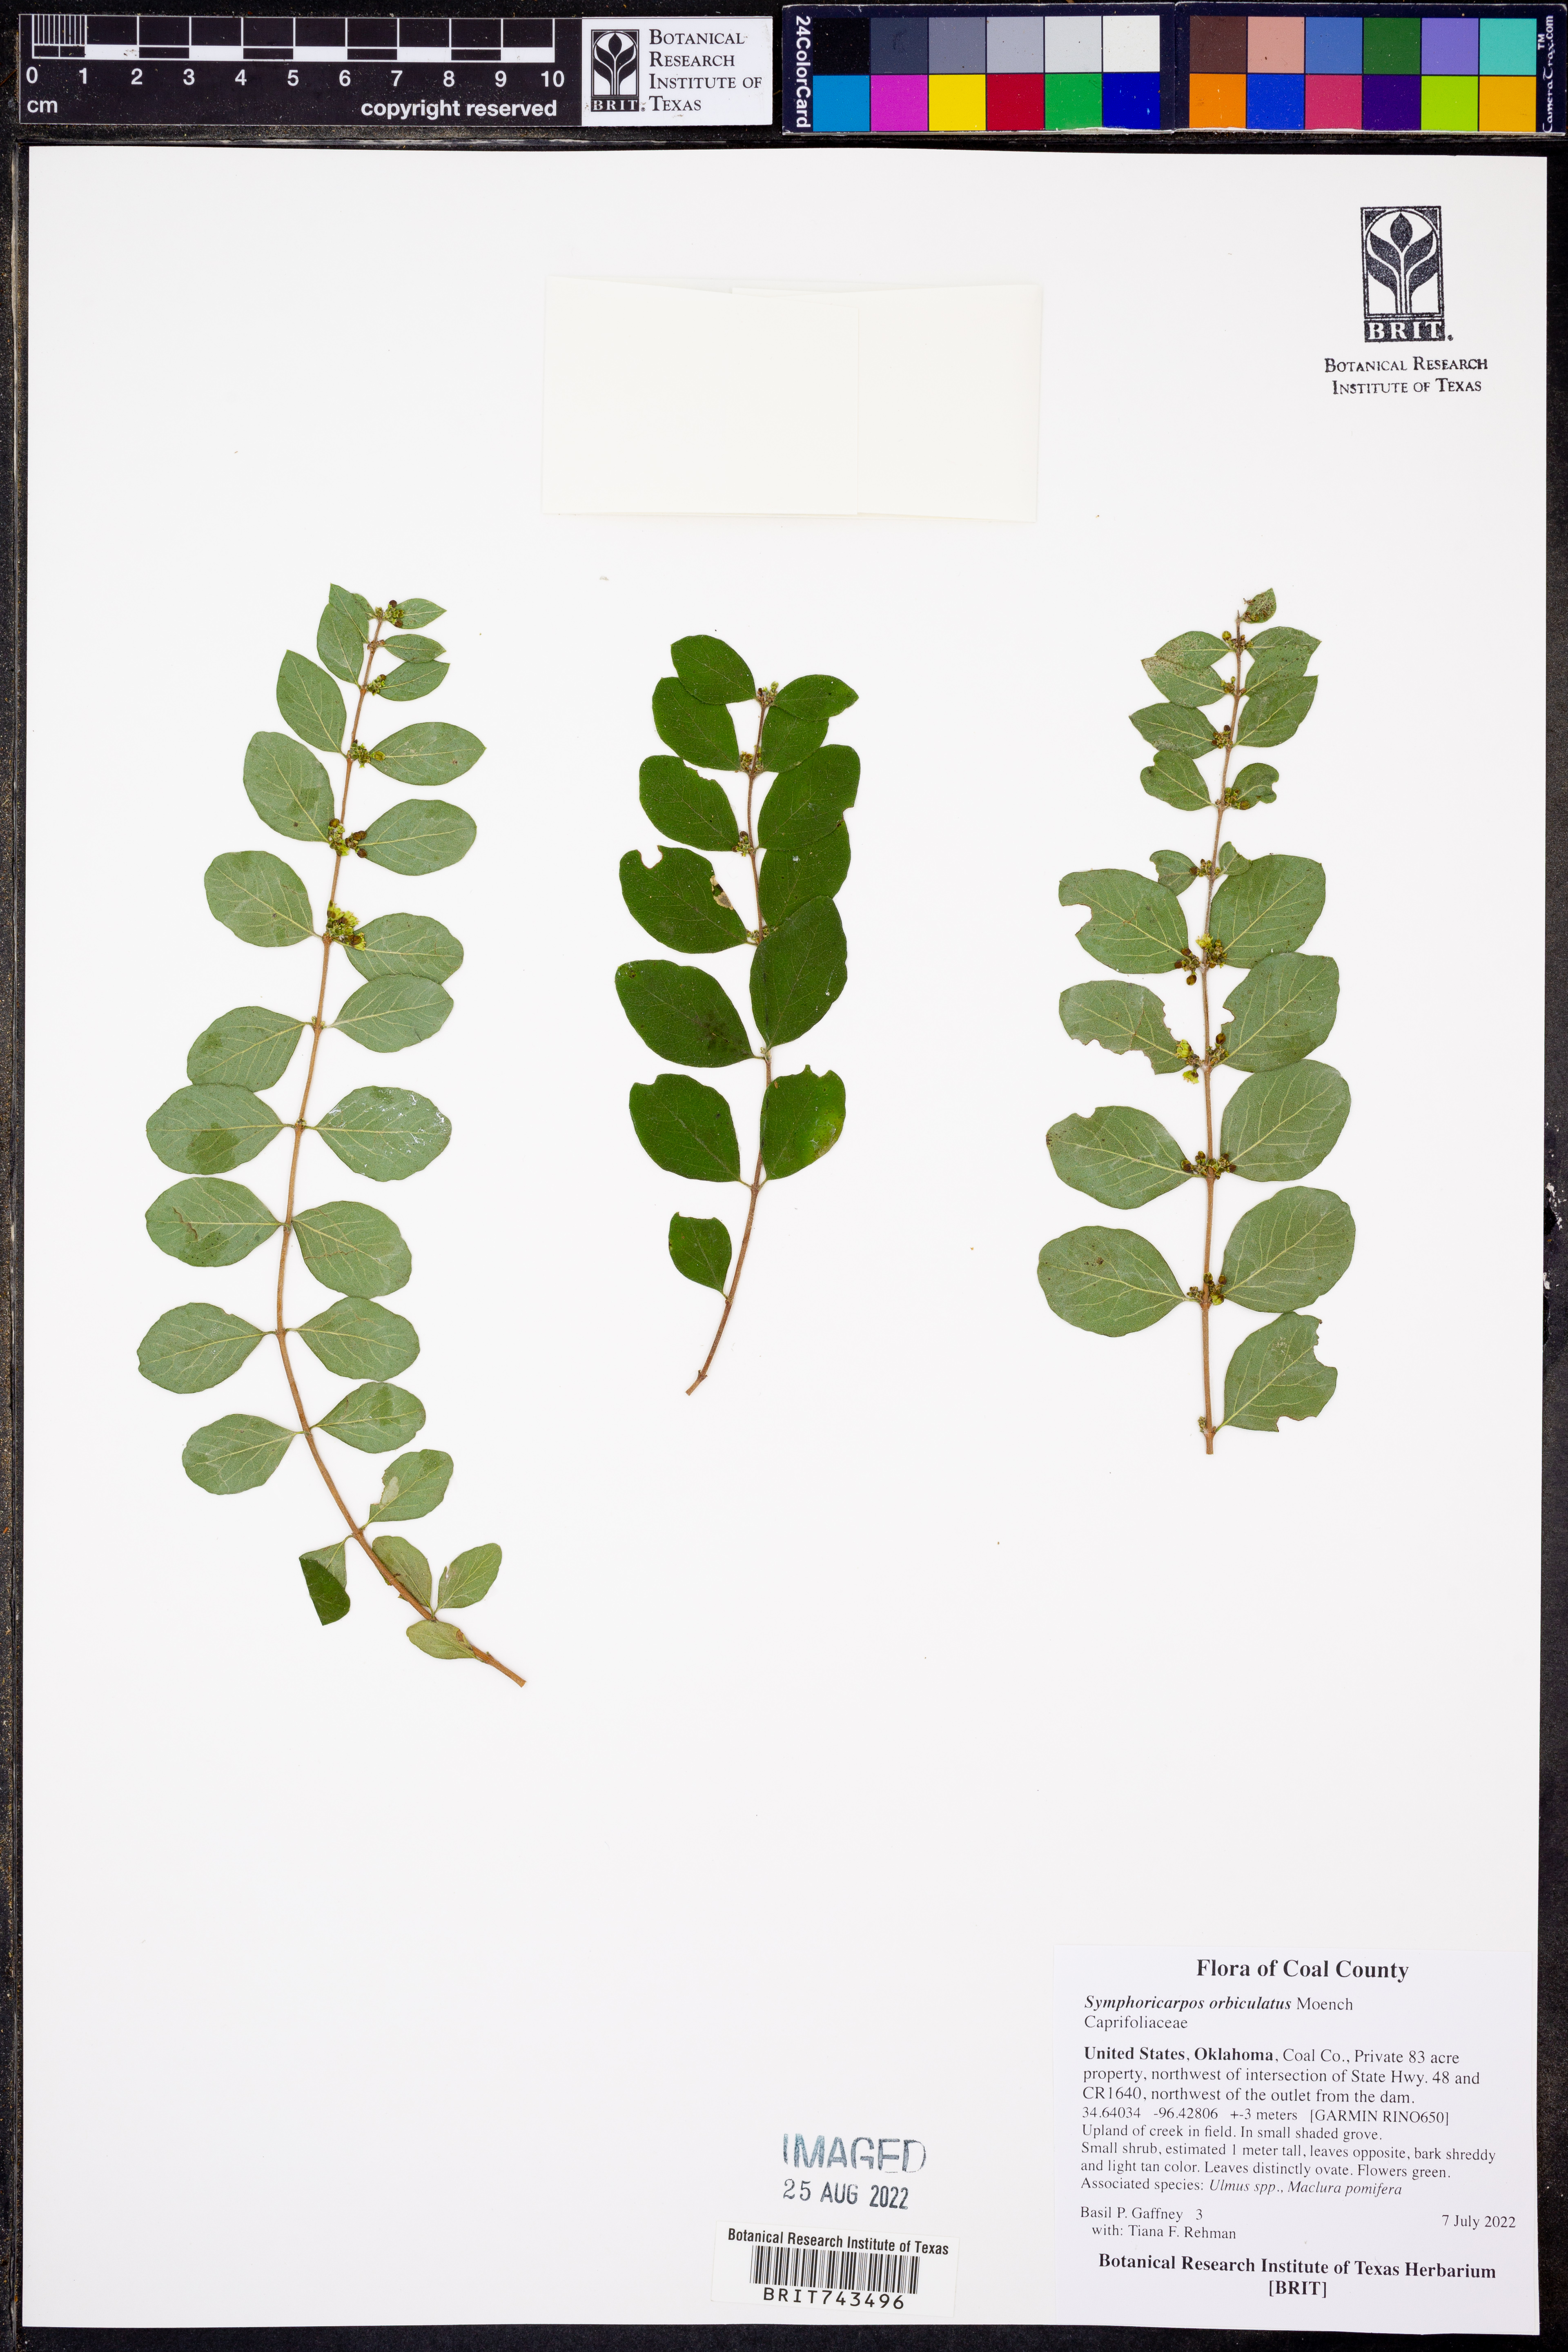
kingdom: Plantae
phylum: Tracheophyta
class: Magnoliopsida
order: Dipsacales
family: Caprifoliaceae
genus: Symphoricarpos
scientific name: Symphoricarpos orbiculatus
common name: Coralberry
